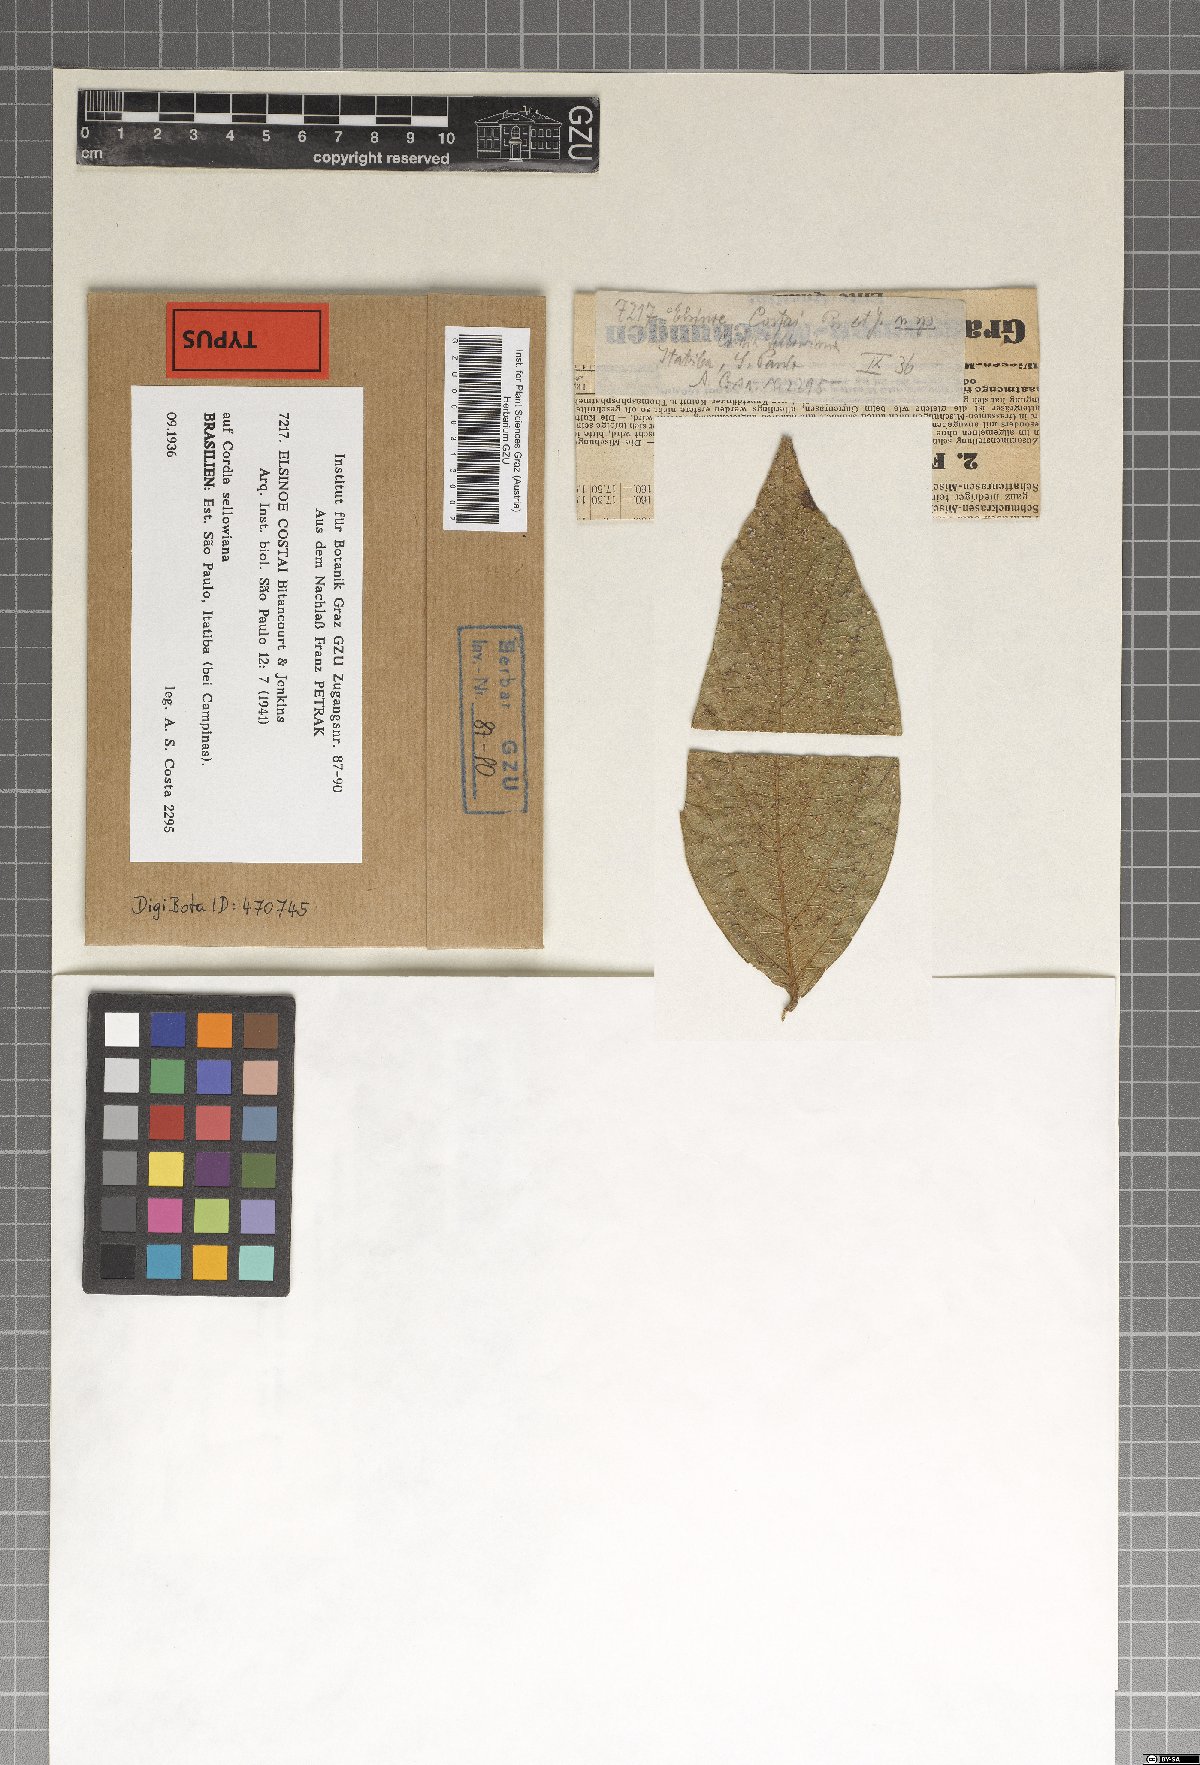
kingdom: Fungi
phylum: Ascomycota
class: Dothideomycetes
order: Myriangiales
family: Elsinoaceae
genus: Elsinoe
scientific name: Elsinoe costai
